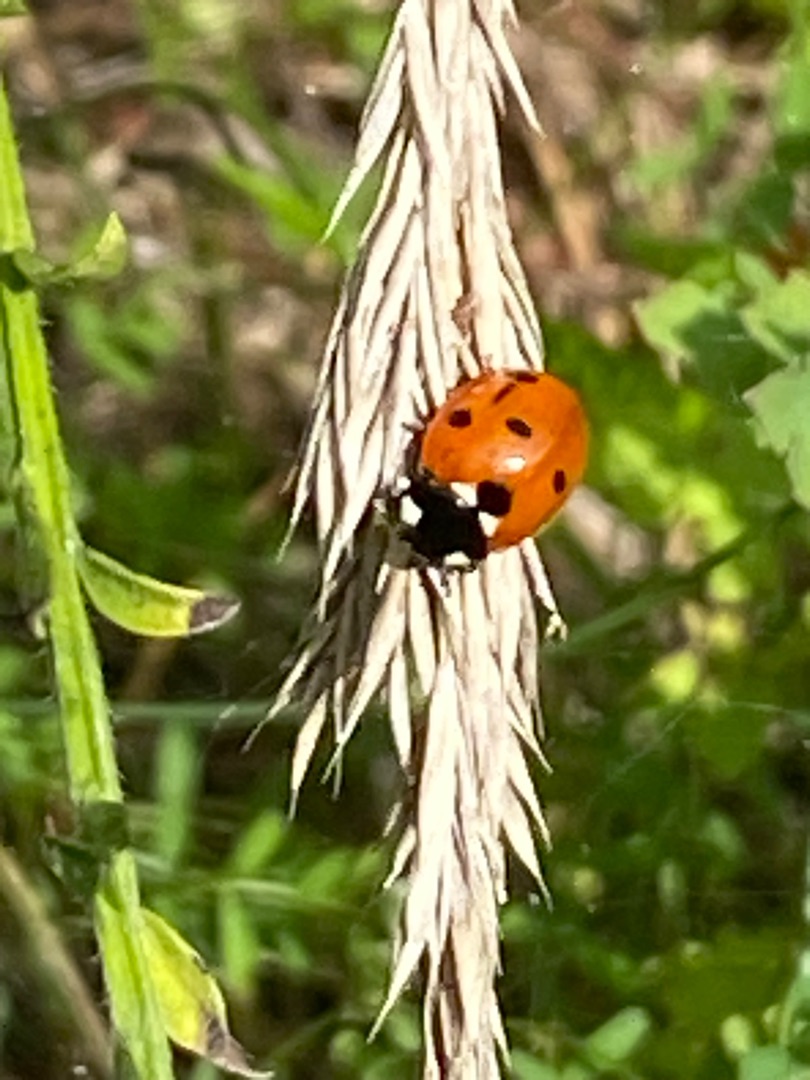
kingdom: Animalia
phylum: Arthropoda
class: Insecta
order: Coleoptera
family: Coccinellidae
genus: Coccinella
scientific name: Coccinella septempunctata
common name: Syvplettet mariehøne
